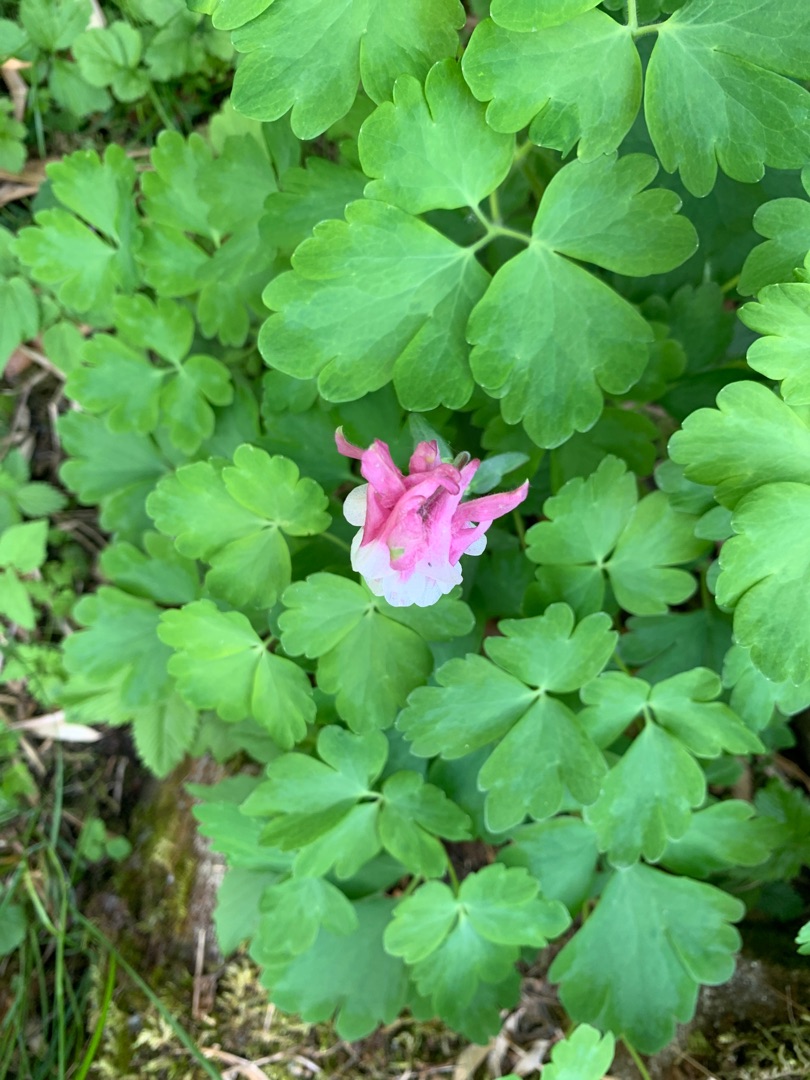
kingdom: Plantae
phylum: Tracheophyta
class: Magnoliopsida
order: Ranunculales
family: Ranunculaceae
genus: Aquilegia
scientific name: Aquilegia vulgaris
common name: Akeleje
